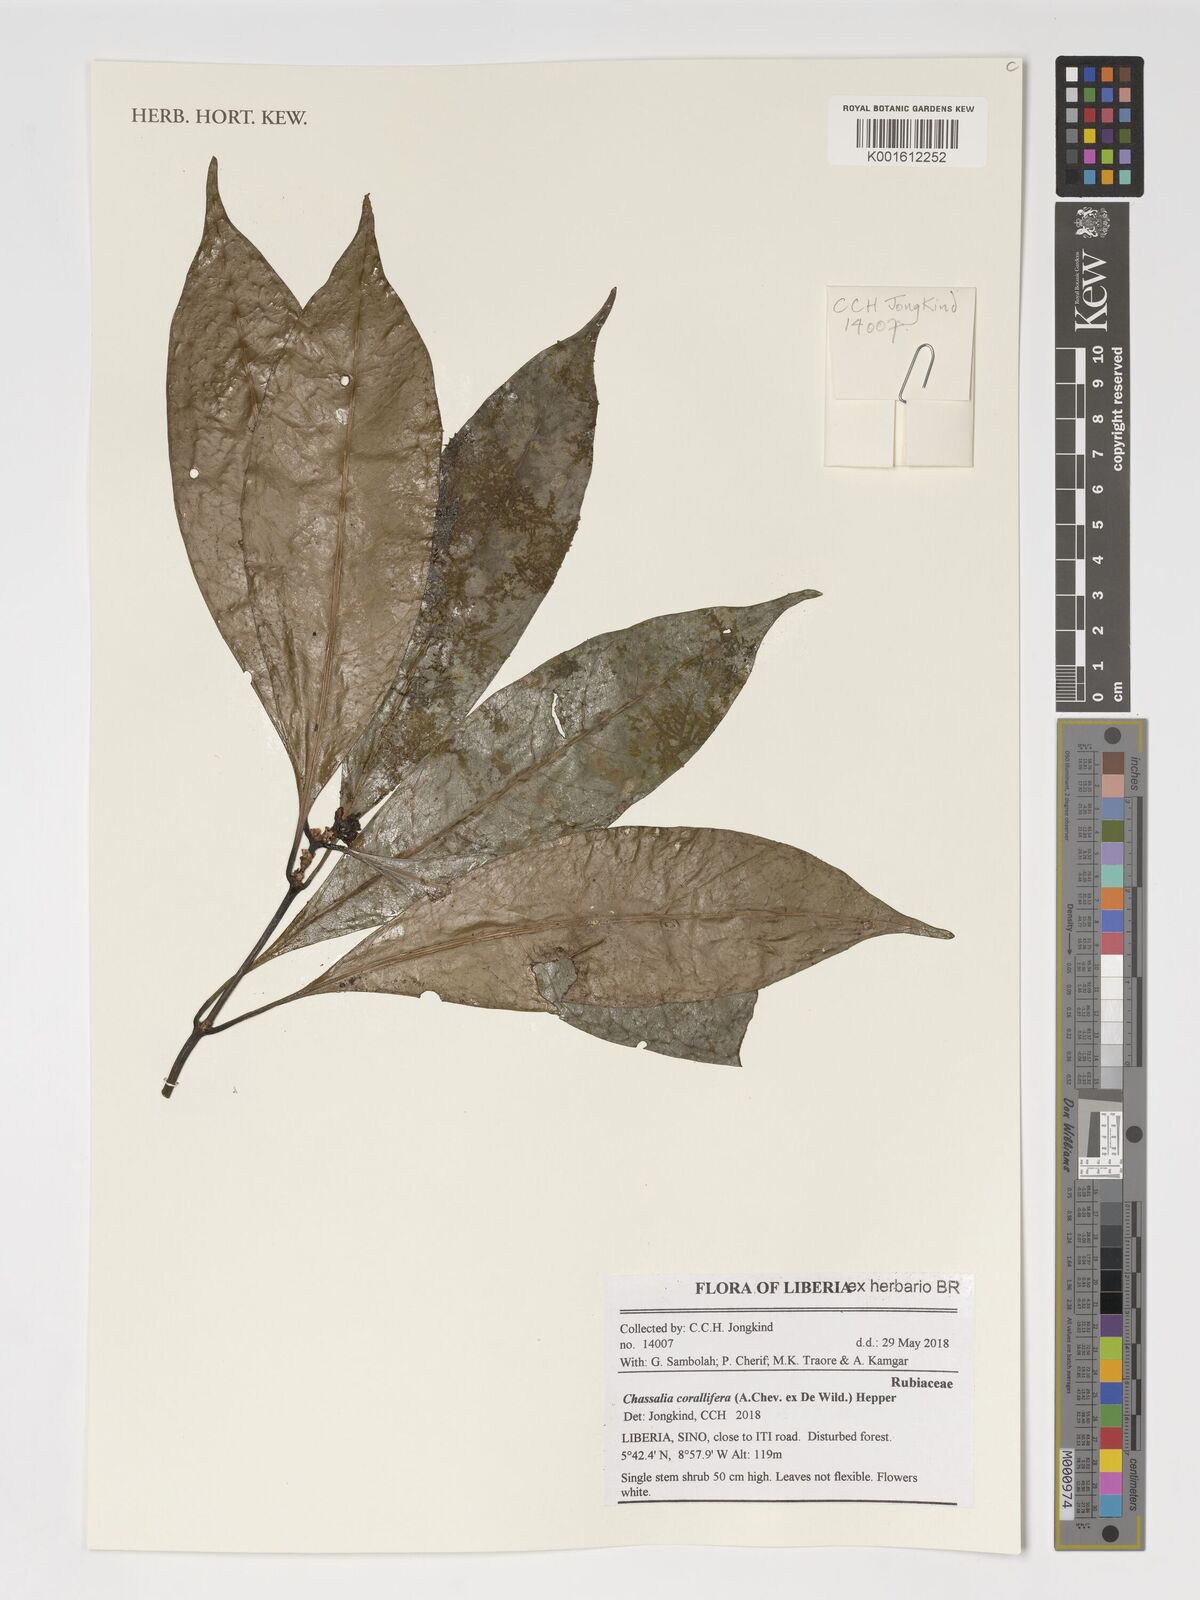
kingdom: Plantae
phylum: Tracheophyta
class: Magnoliopsida
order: Gentianales
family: Rubiaceae
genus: Chassalia
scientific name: Chassalia corallifera
